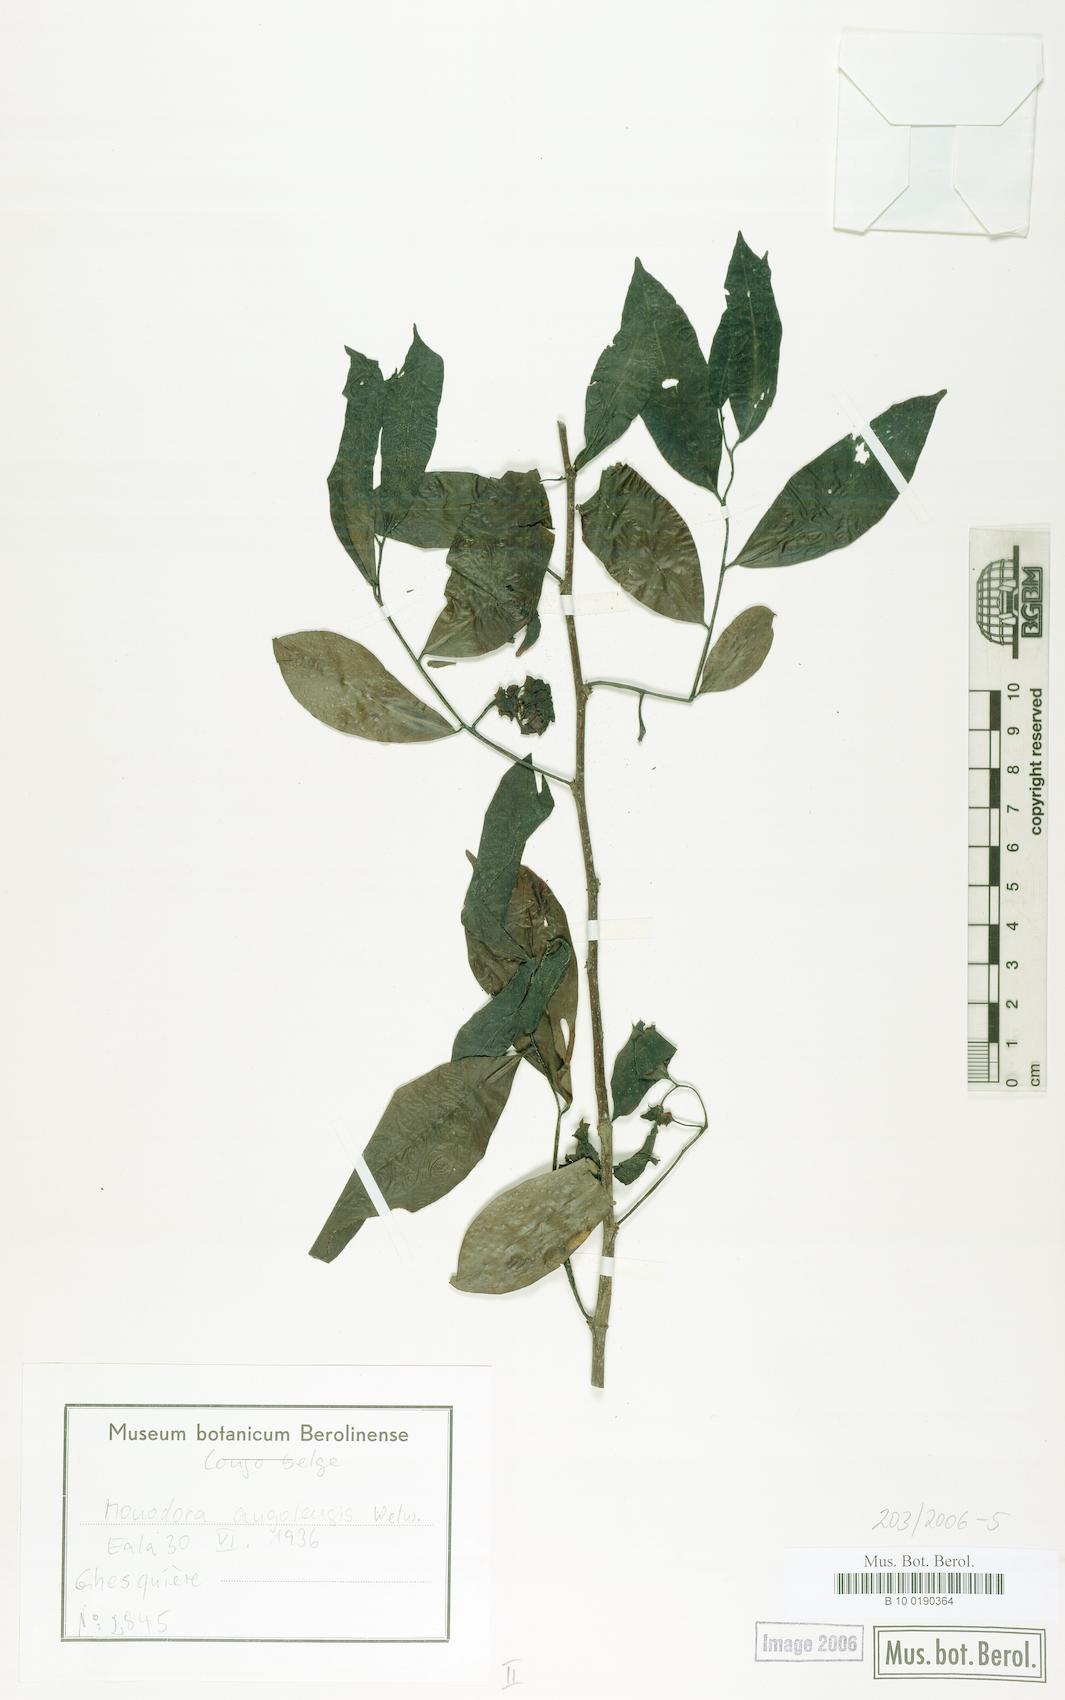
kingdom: Plantae
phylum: Tracheophyta
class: Magnoliopsida
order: Magnoliales
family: Annonaceae
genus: Monodora
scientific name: Monodora angolensis
